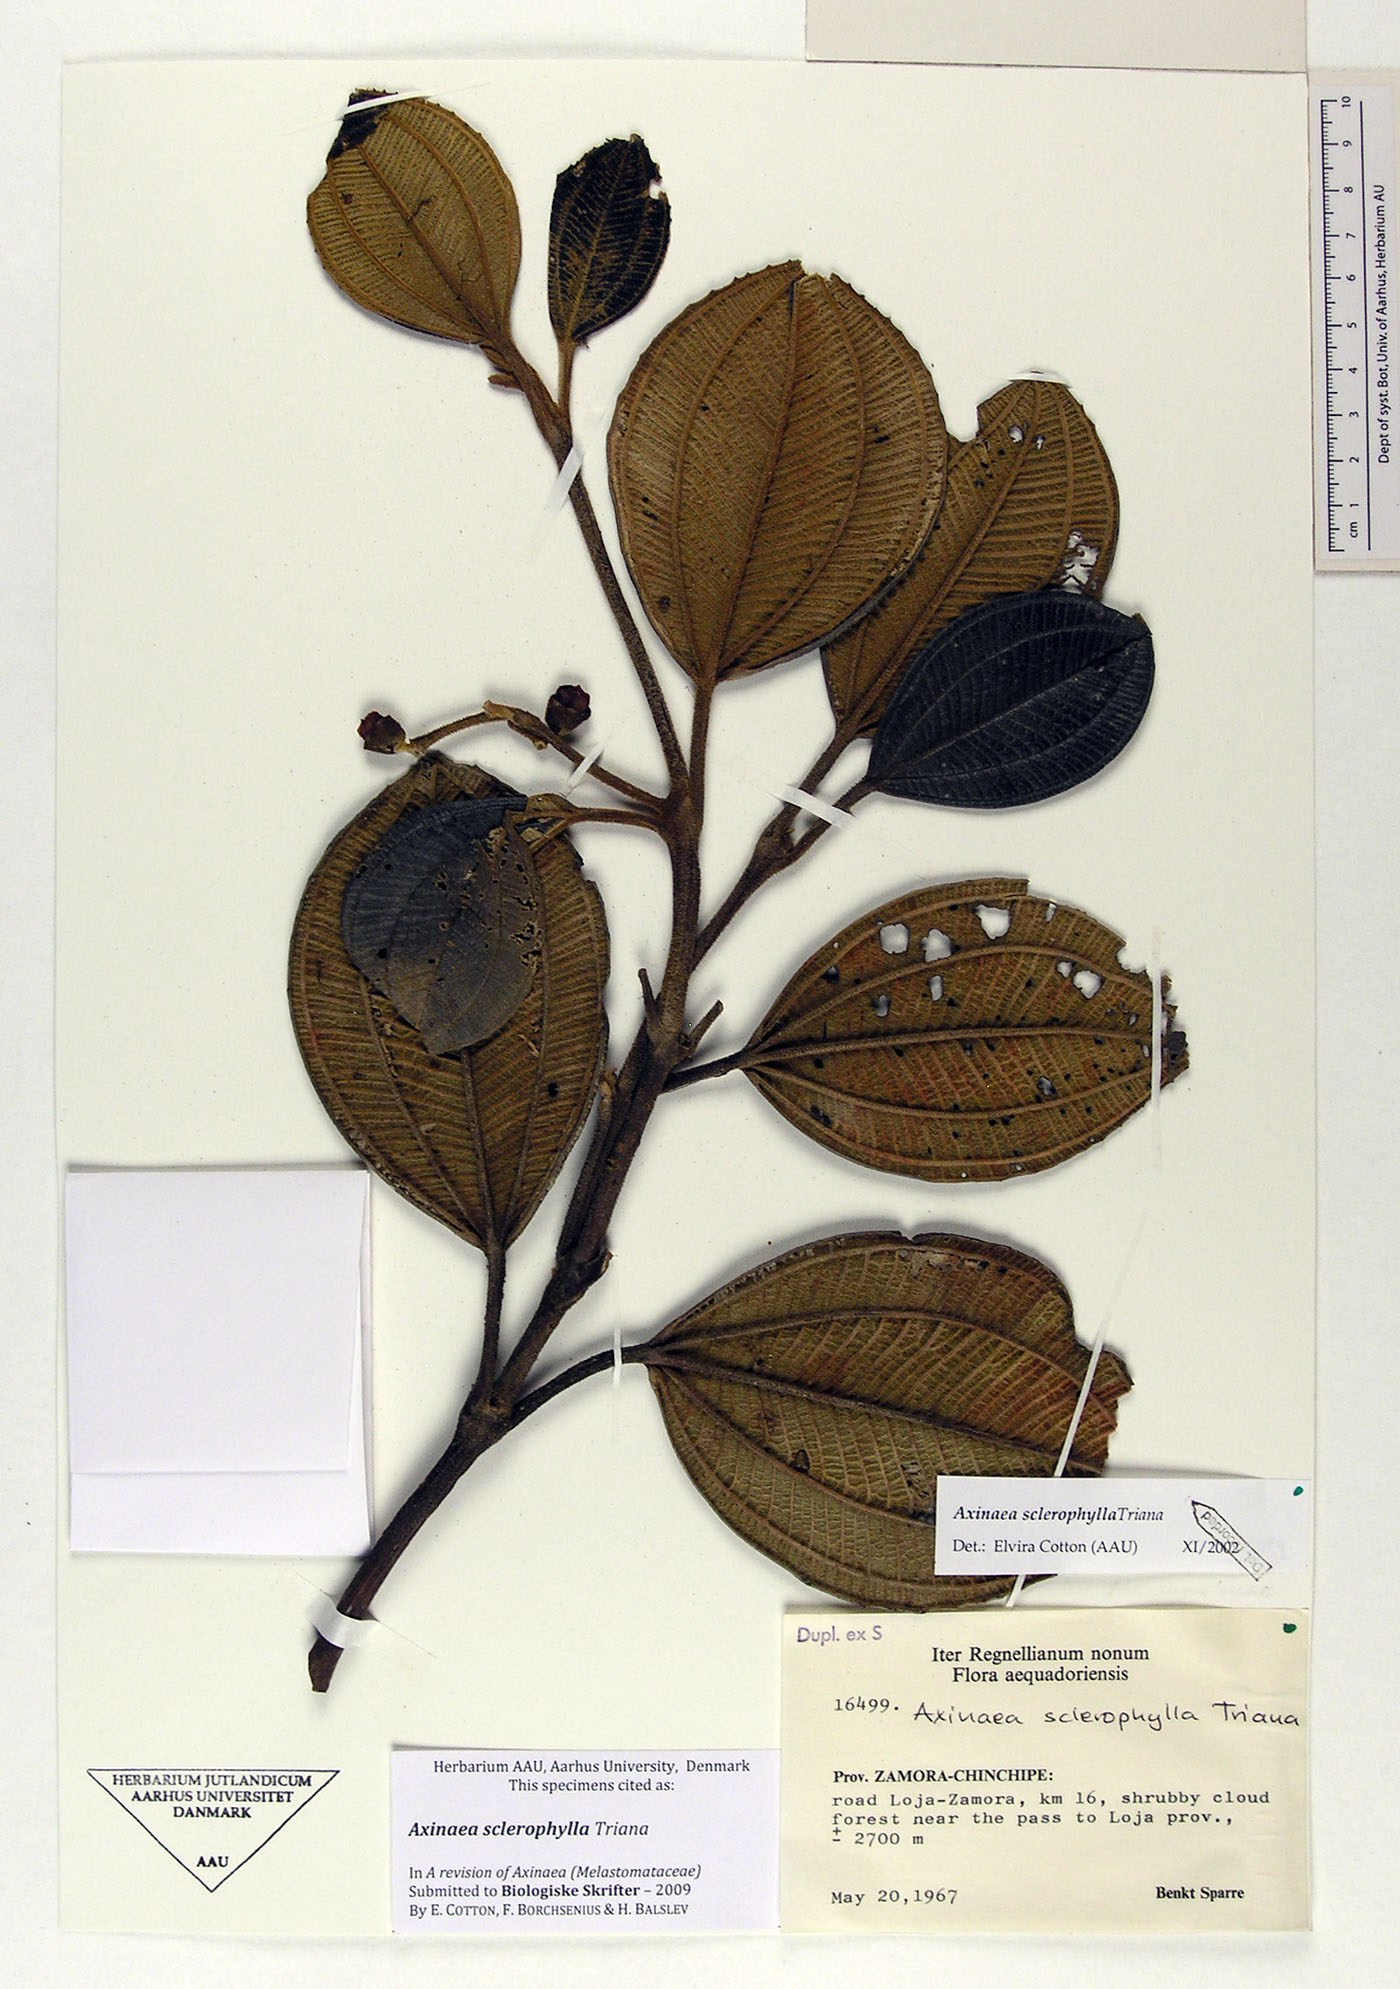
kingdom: Plantae
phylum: Tracheophyta
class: Magnoliopsida
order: Myrtales
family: Melastomataceae
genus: Axinaea
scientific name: Axinaea sclerophylla
